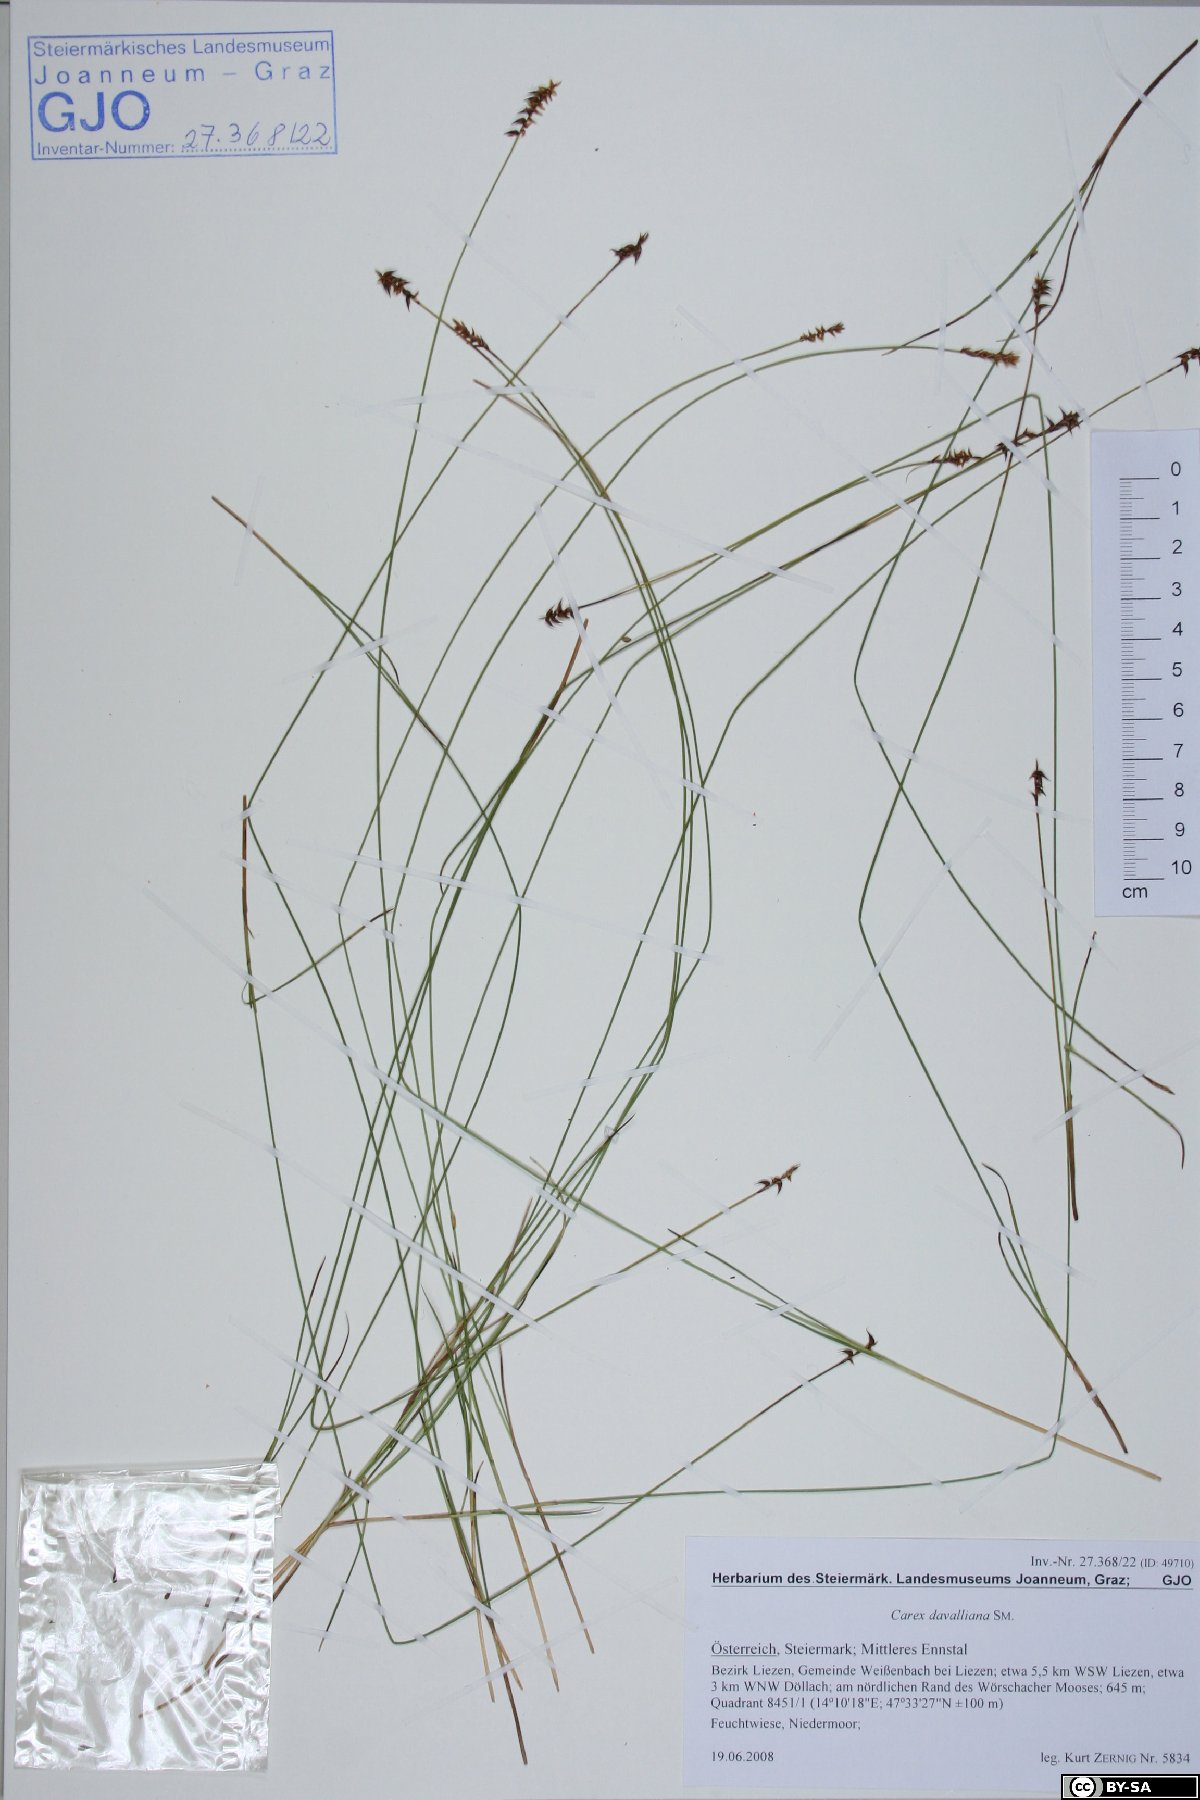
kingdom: Plantae
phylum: Tracheophyta
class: Liliopsida
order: Poales
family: Cyperaceae
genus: Carex
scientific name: Carex davalliana
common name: Davall's sedge
